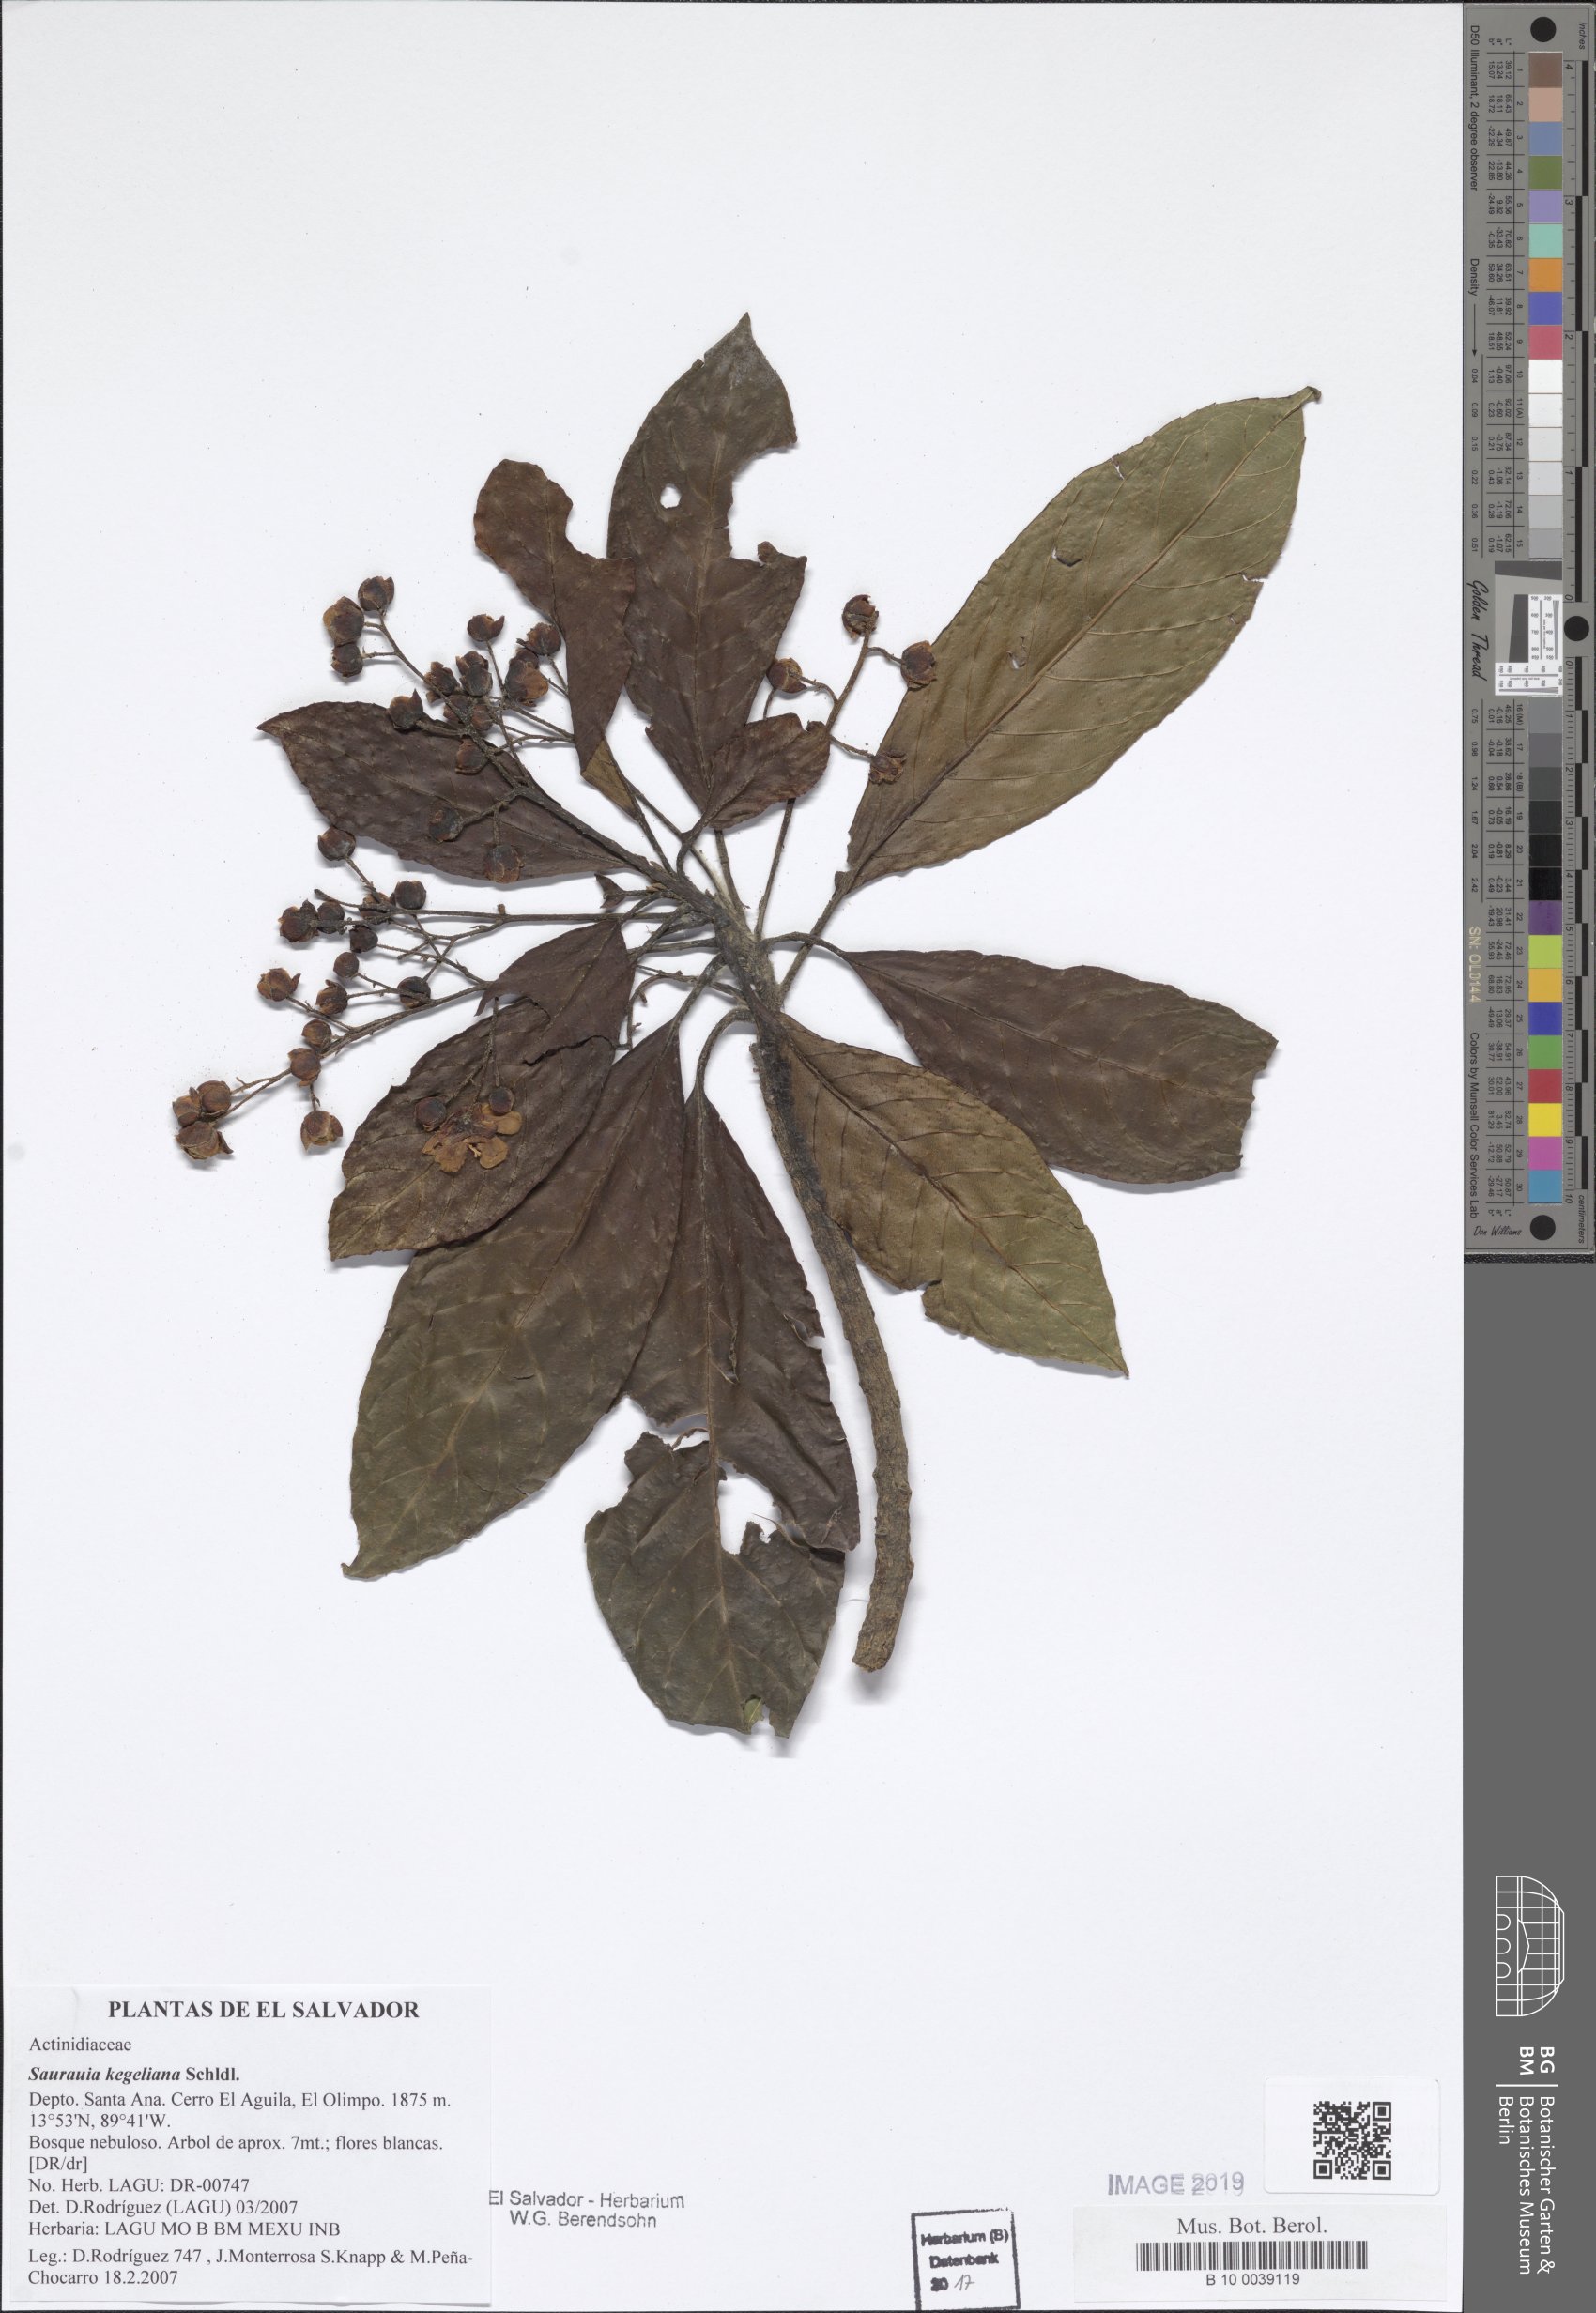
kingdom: Plantae
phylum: Tracheophyta
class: Magnoliopsida
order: Ericales
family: Actinidiaceae
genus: Saurauia
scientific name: Saurauia kegeliana
